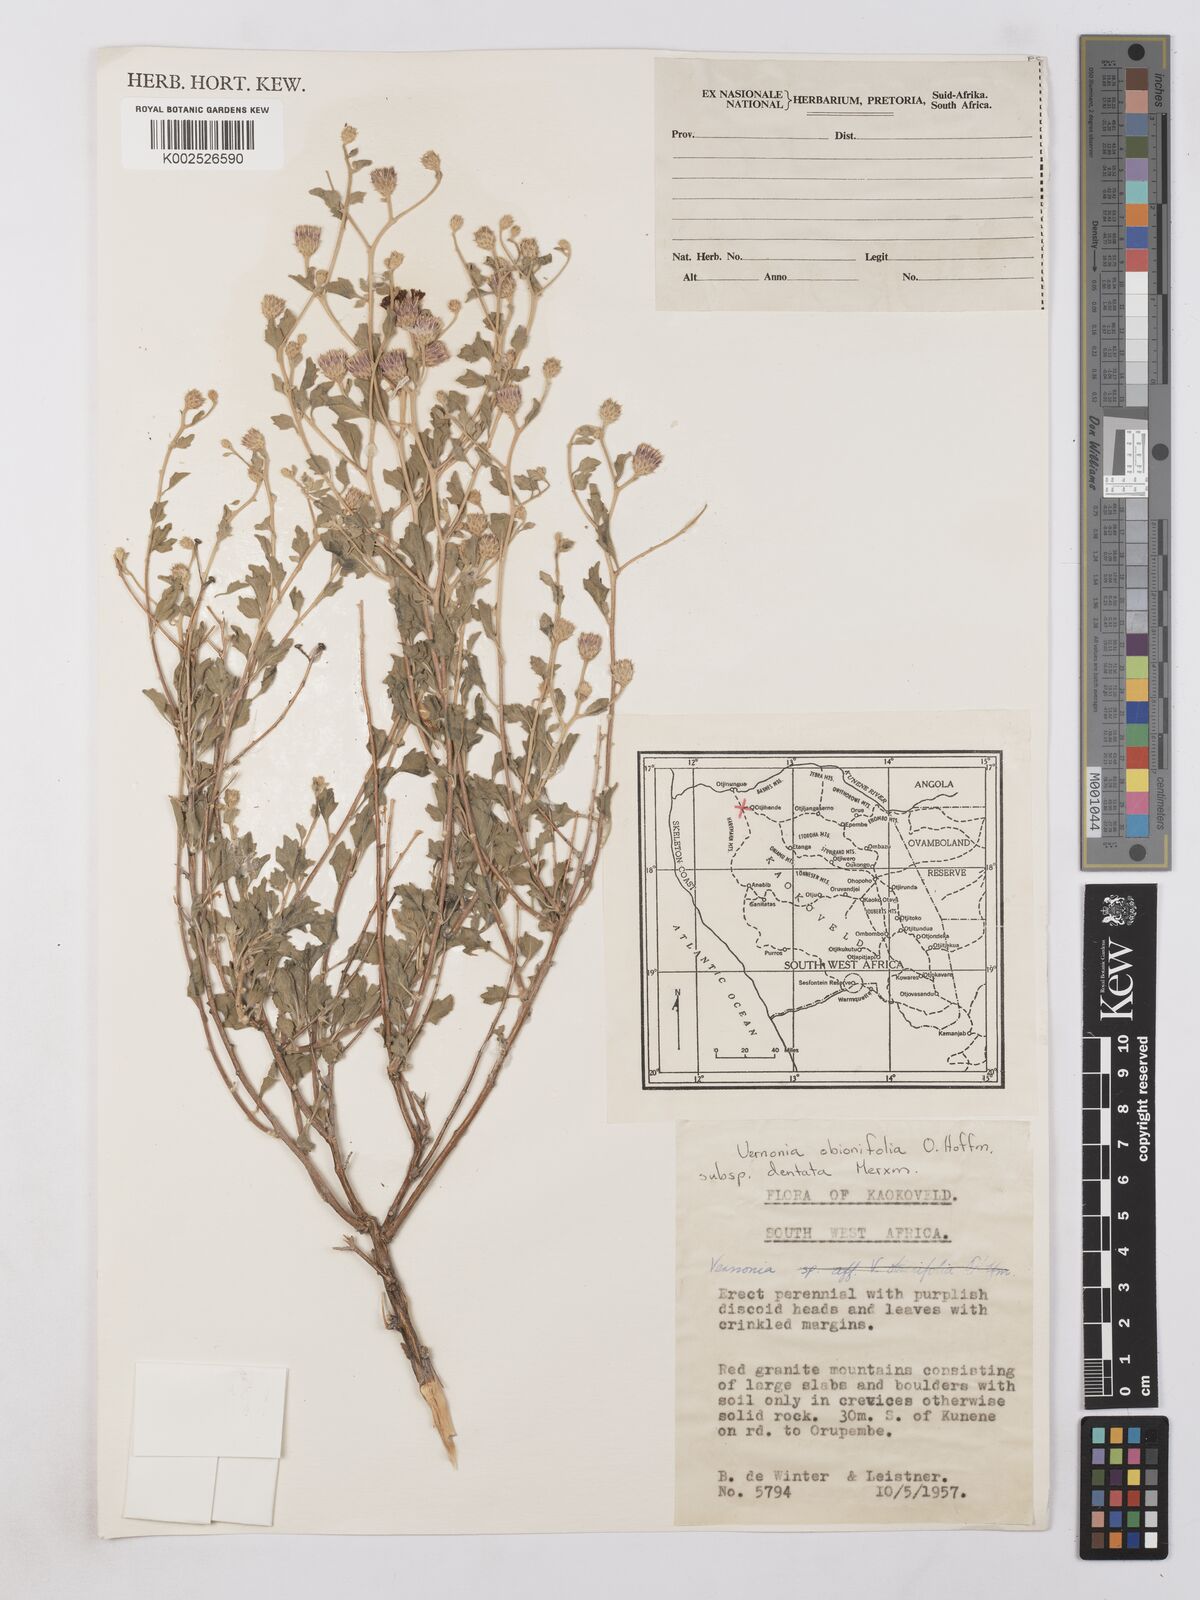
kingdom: Plantae
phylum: Tracheophyta
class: Magnoliopsida
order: Asterales
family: Asteraceae
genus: Namibithamnus
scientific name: Namibithamnus dentatus
